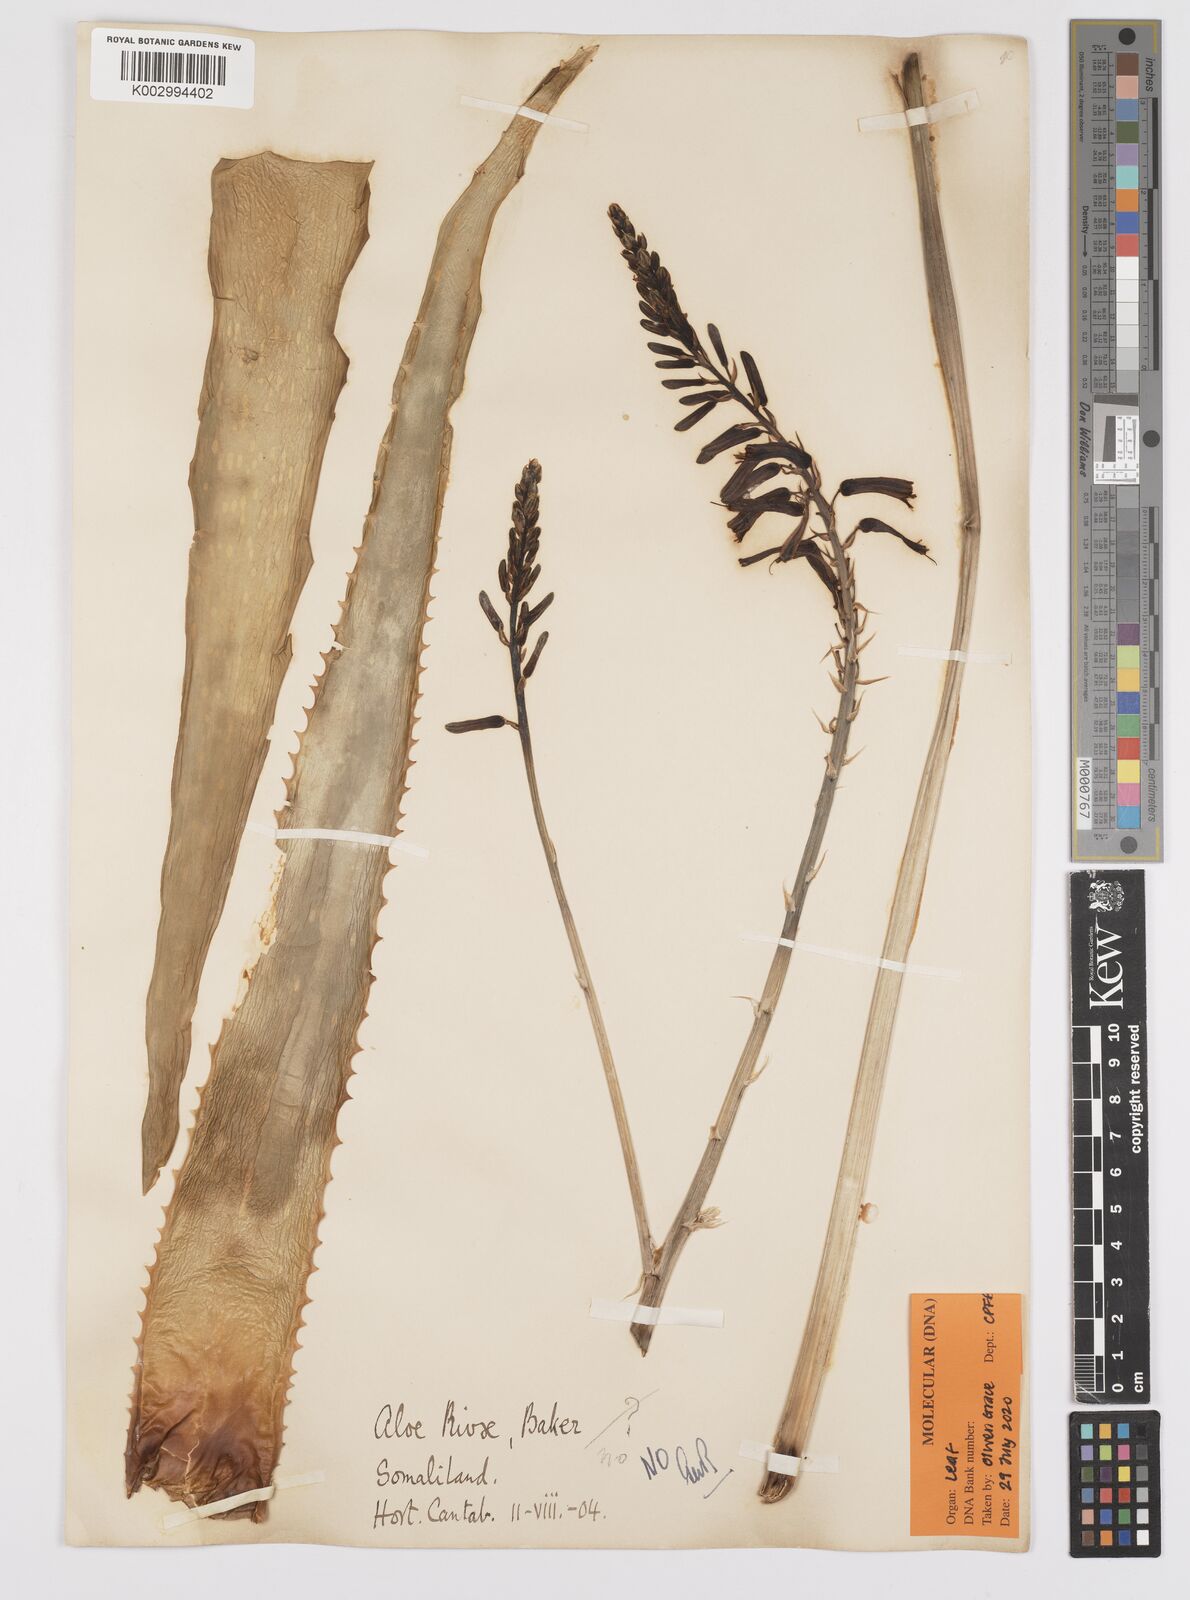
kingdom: Plantae
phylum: Tracheophyta
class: Liliopsida
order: Asparagales
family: Asphodelaceae
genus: Aloe
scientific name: Aloe
